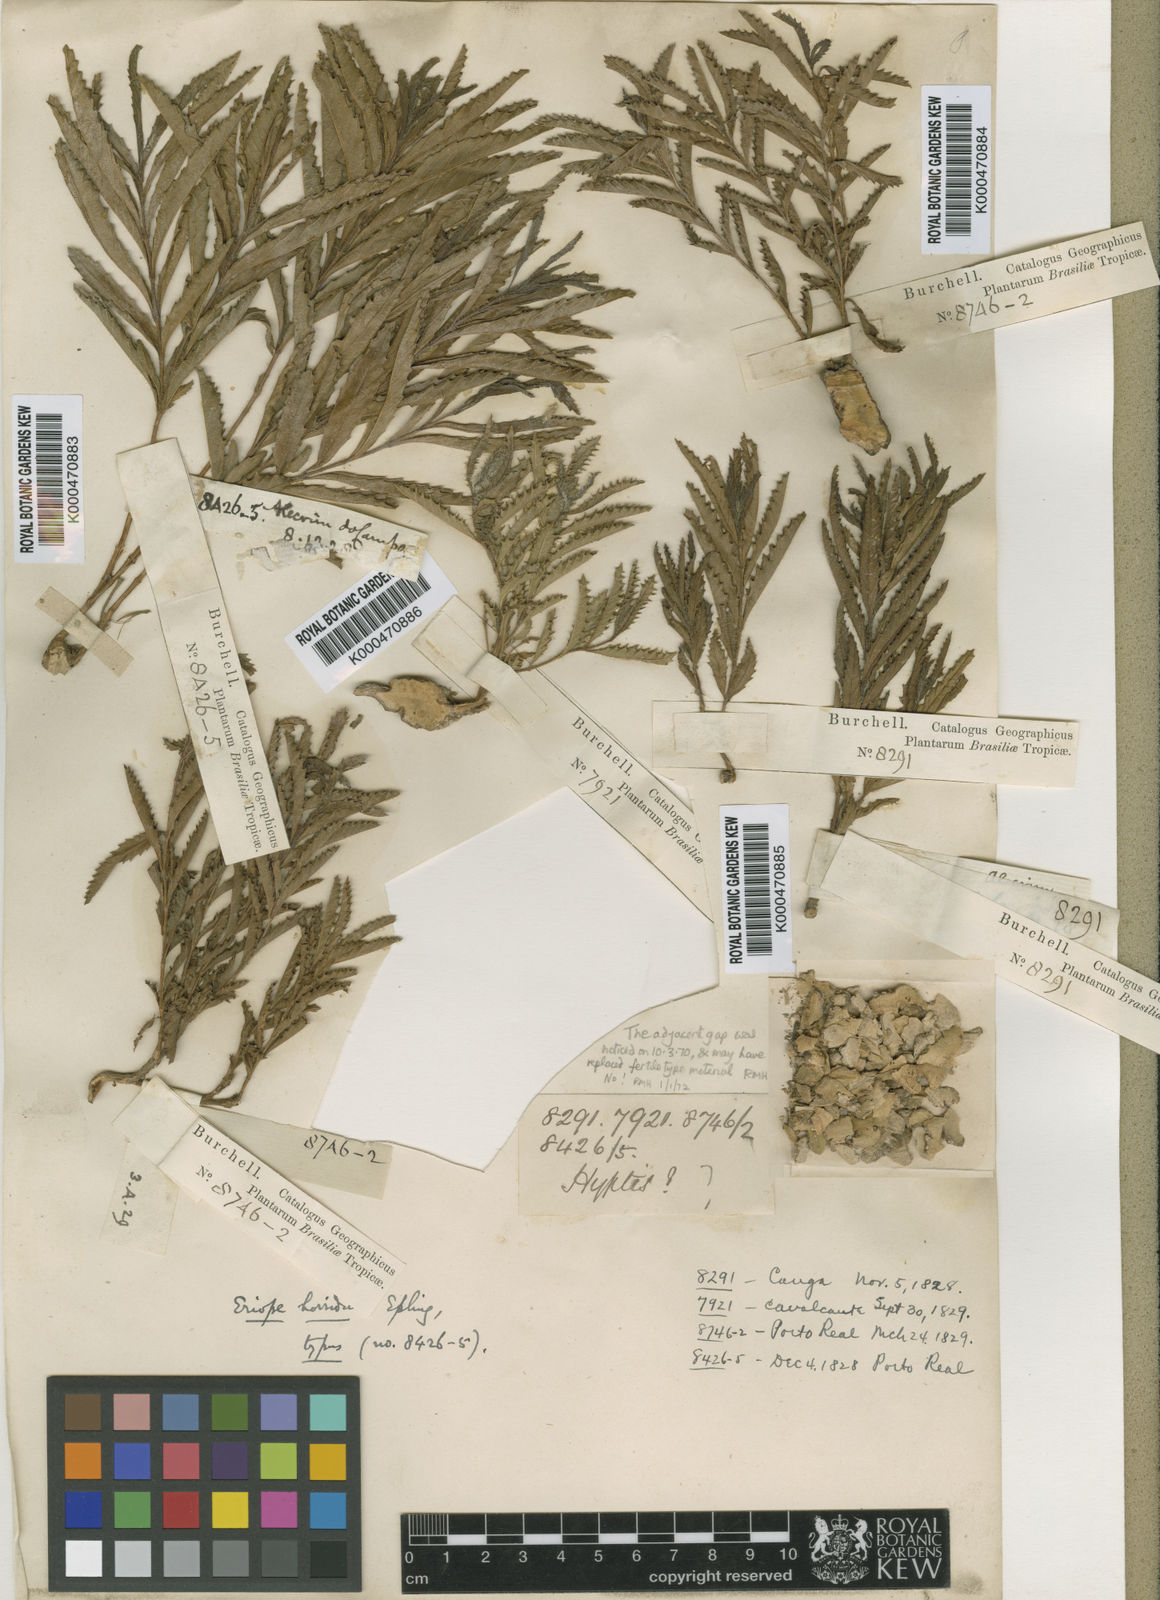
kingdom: Plantae
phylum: Tracheophyta
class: Magnoliopsida
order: Lamiales
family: Verbenaceae
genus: Lippia
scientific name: Lippia grandiflora
